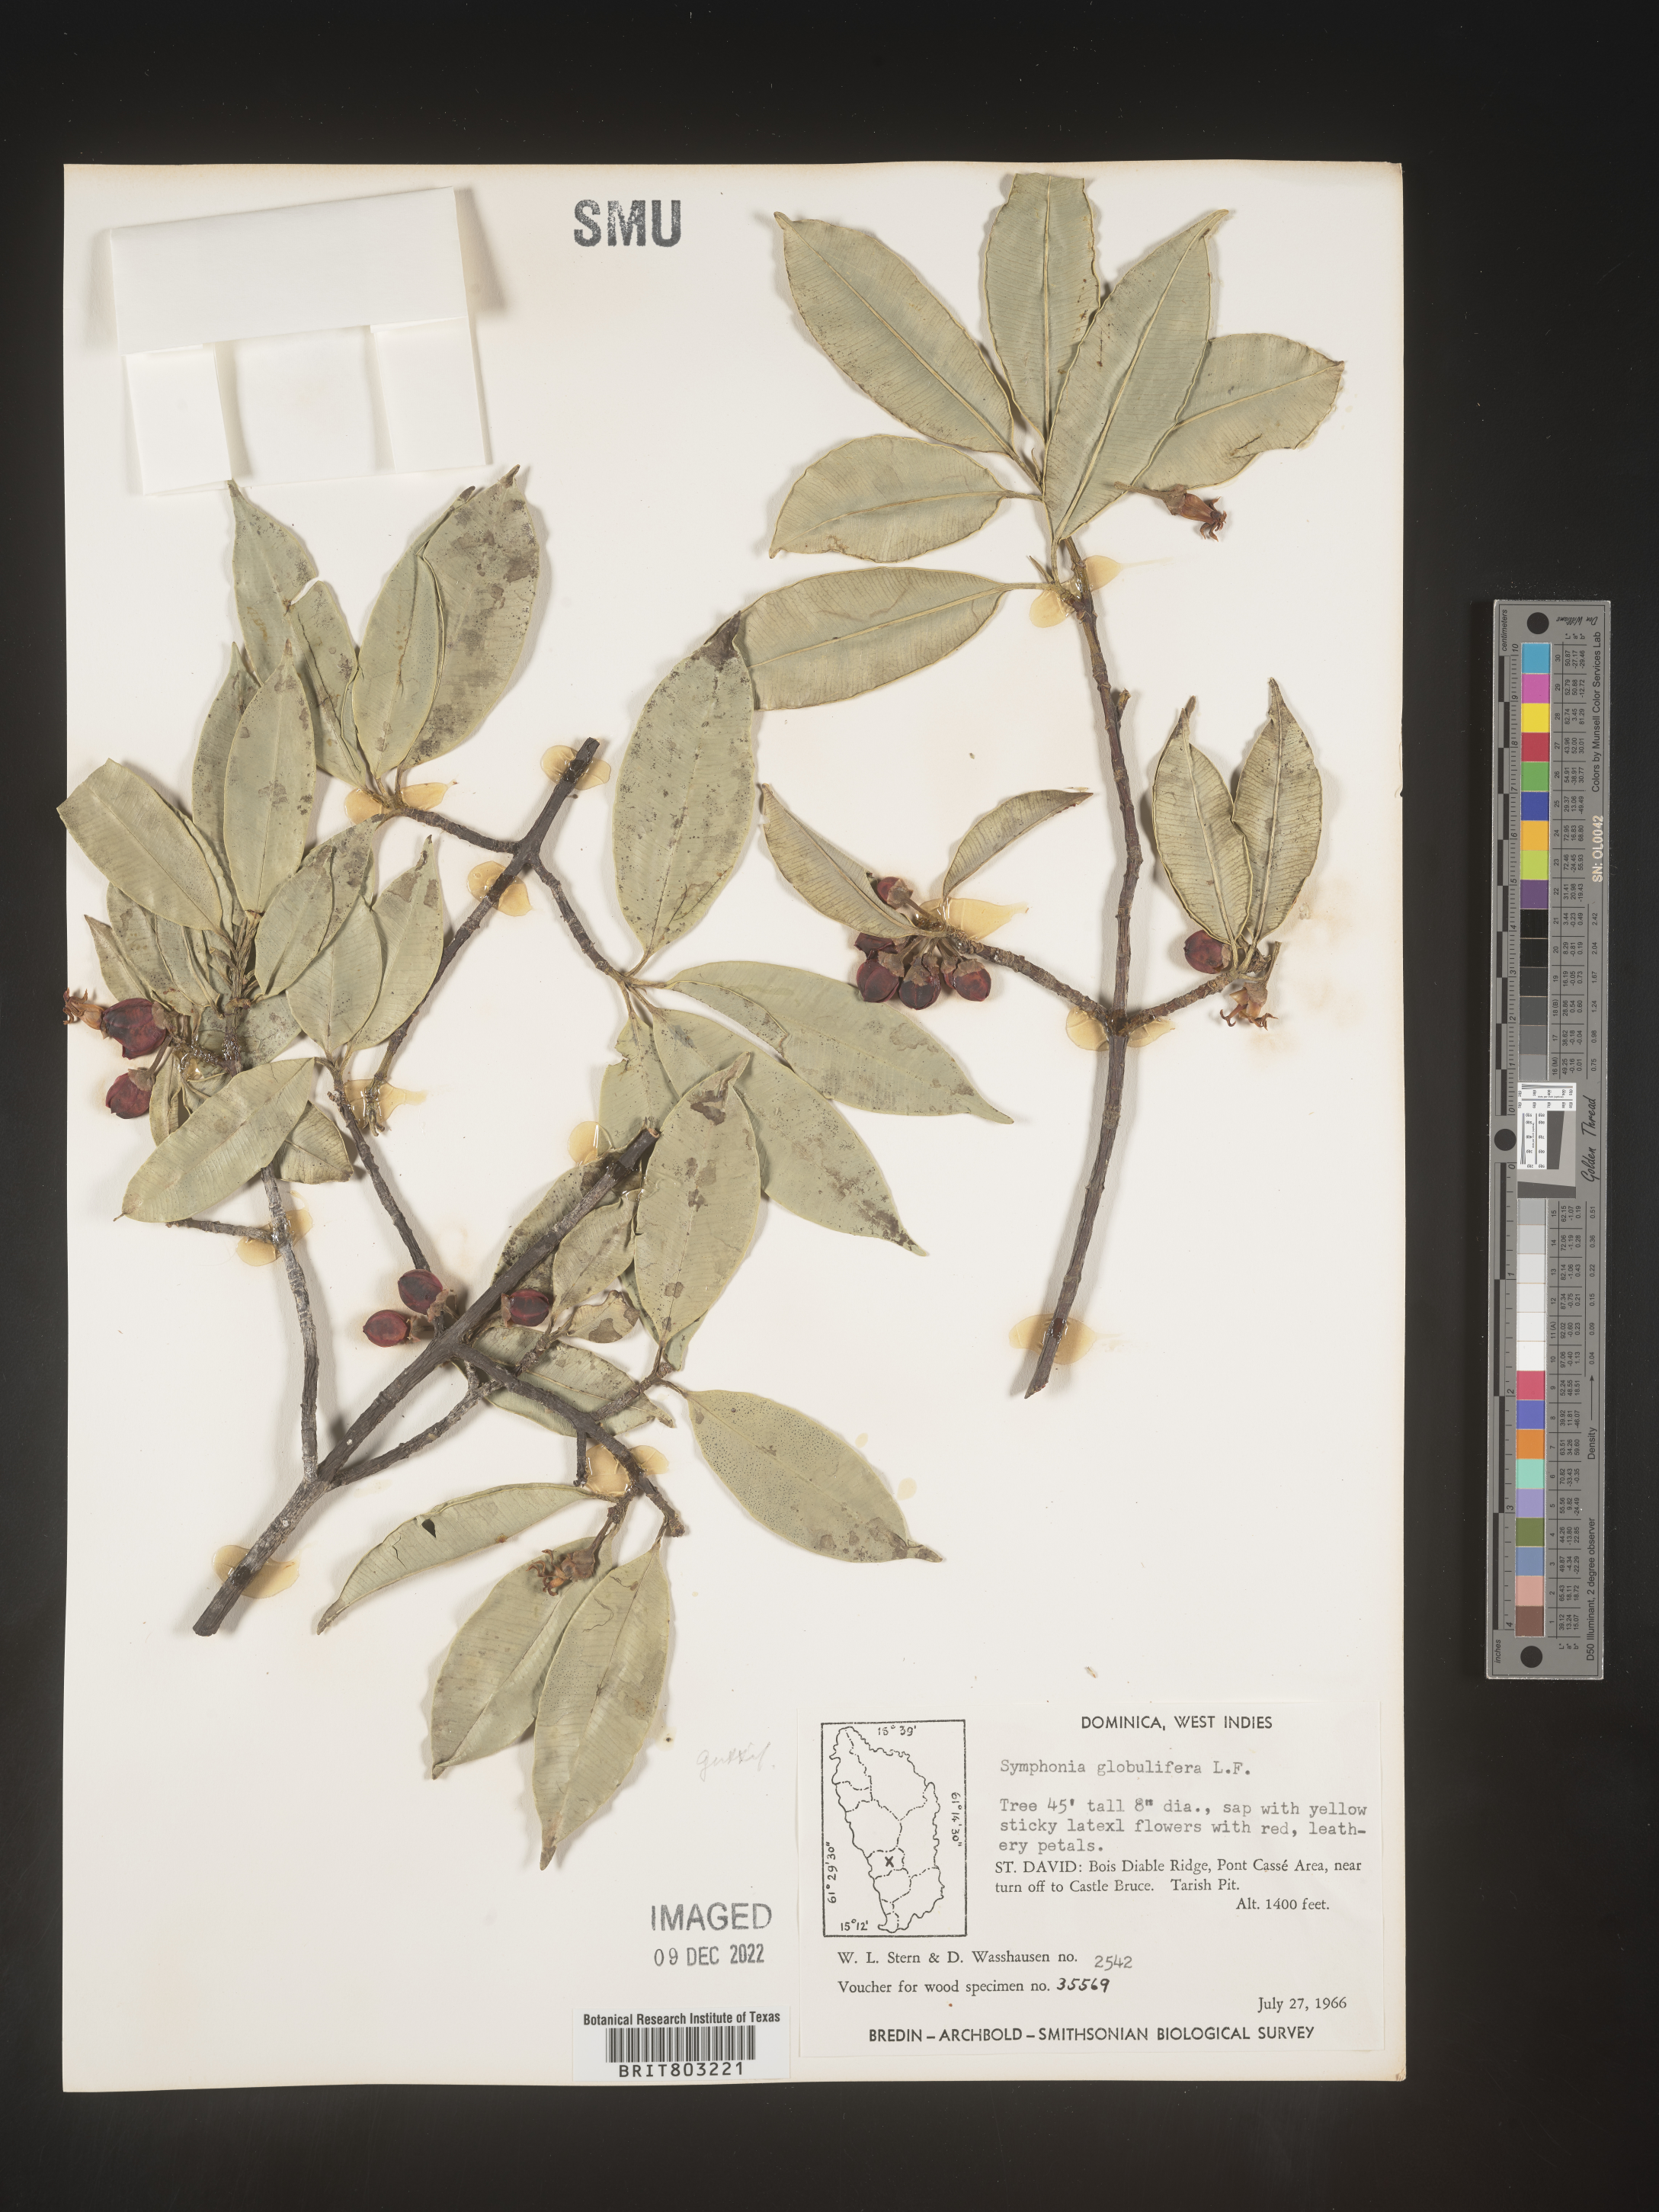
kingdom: Plantae
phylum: Tracheophyta
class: Magnoliopsida
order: Malpighiales
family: Clusiaceae
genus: Symphonia
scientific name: Symphonia
